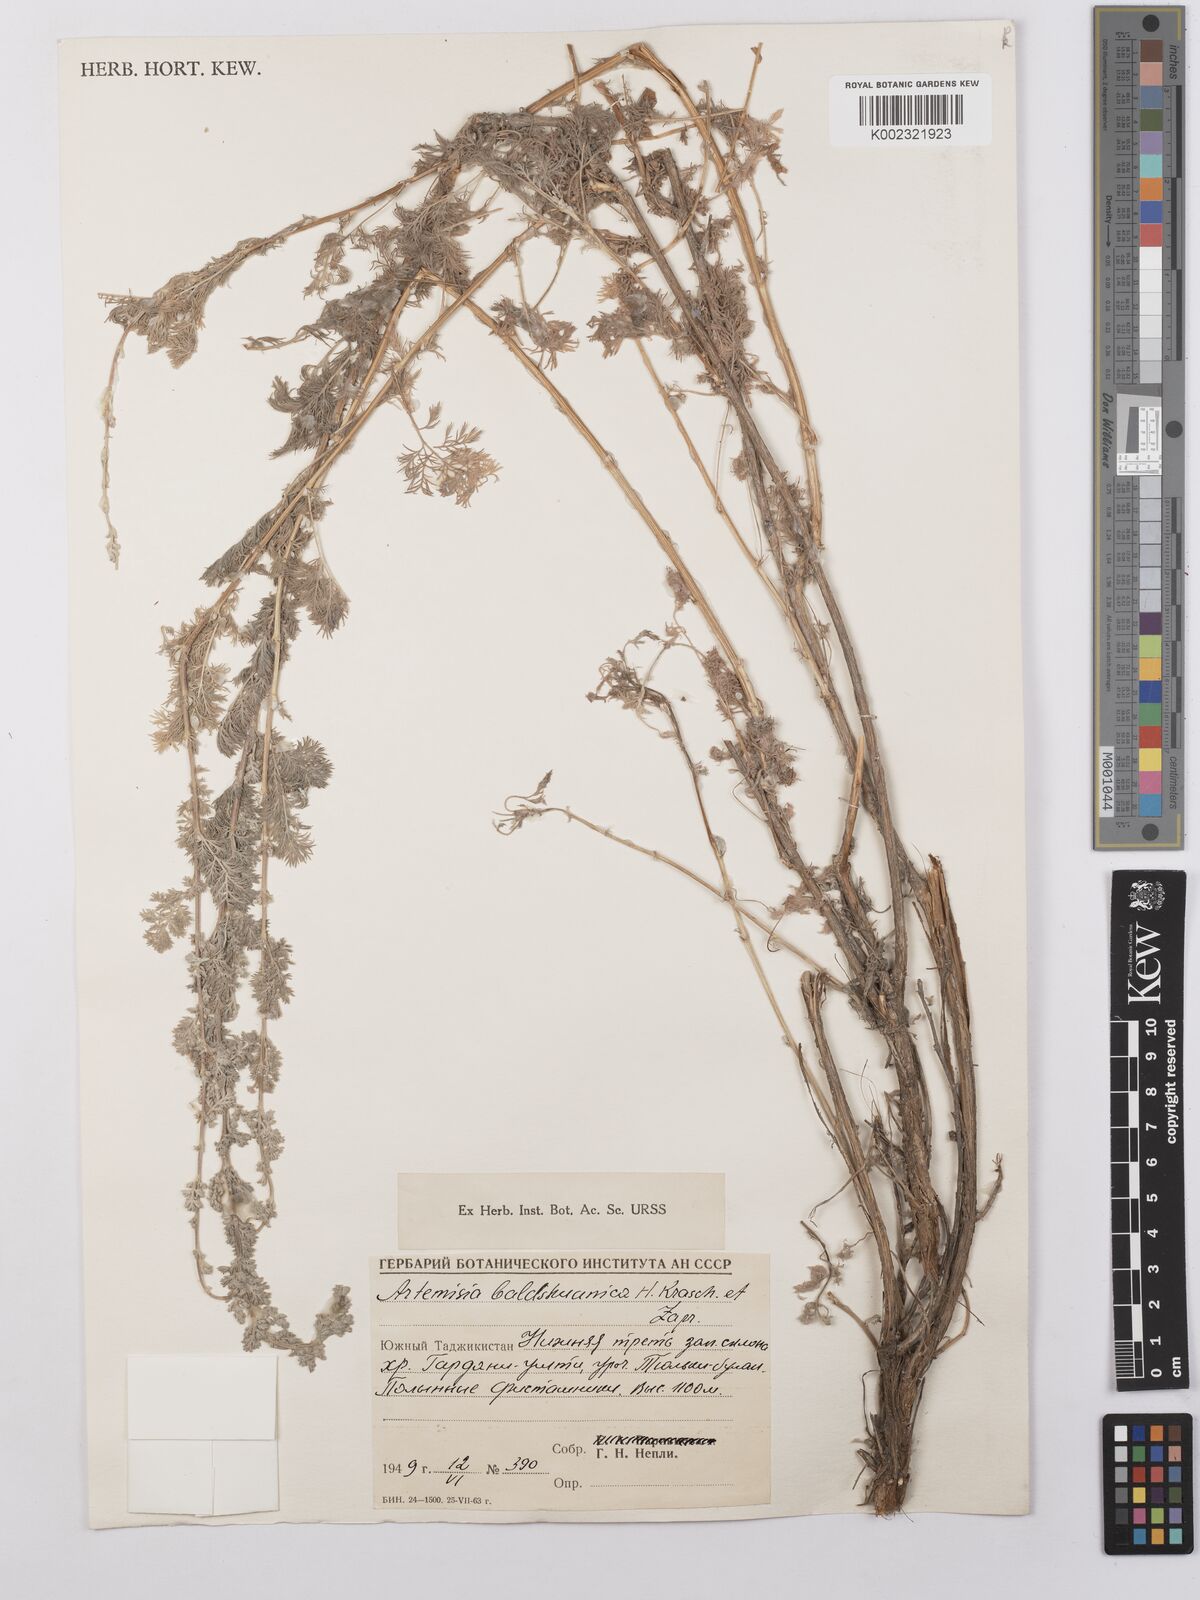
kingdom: Plantae
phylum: Tracheophyta
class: Magnoliopsida
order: Asterales
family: Asteraceae
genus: Artemisia
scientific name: Artemisia baldshuanica
